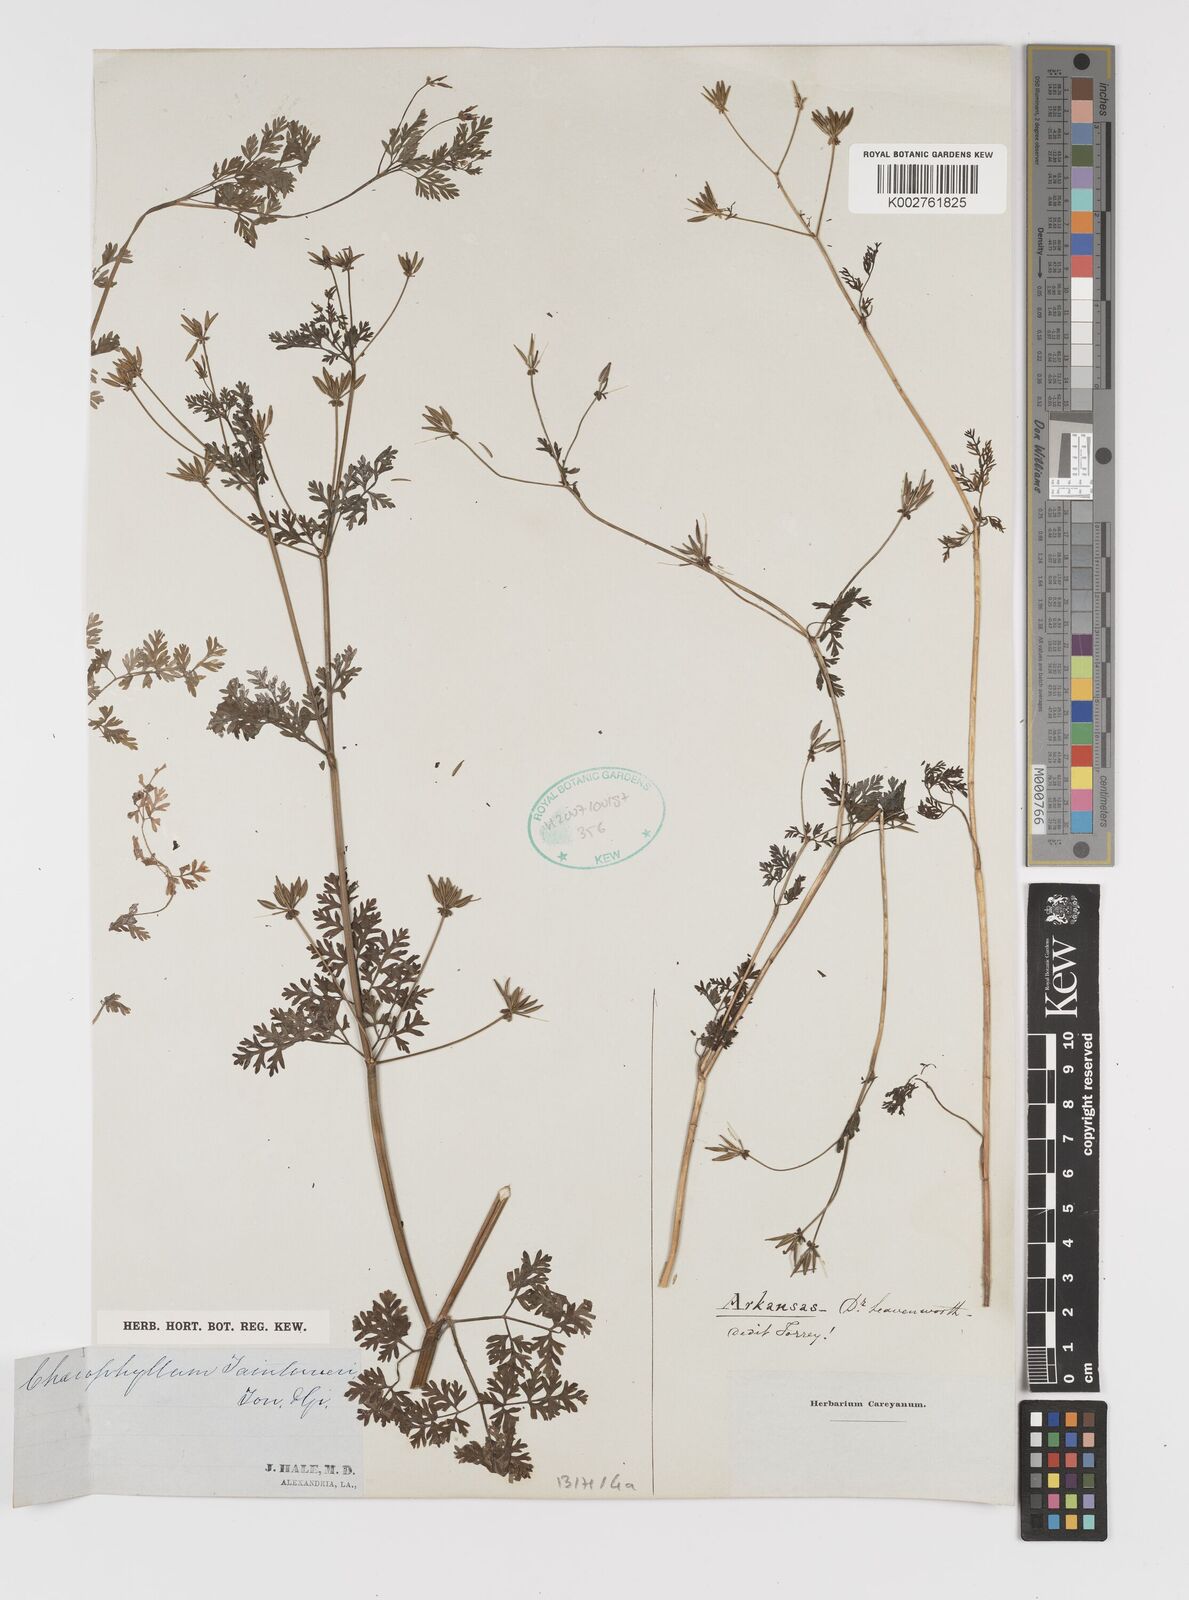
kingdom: Plantae
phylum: Tracheophyta
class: Magnoliopsida
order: Apiales
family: Apiaceae
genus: Chaerophyllum
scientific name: Chaerophyllum dasycarpum
